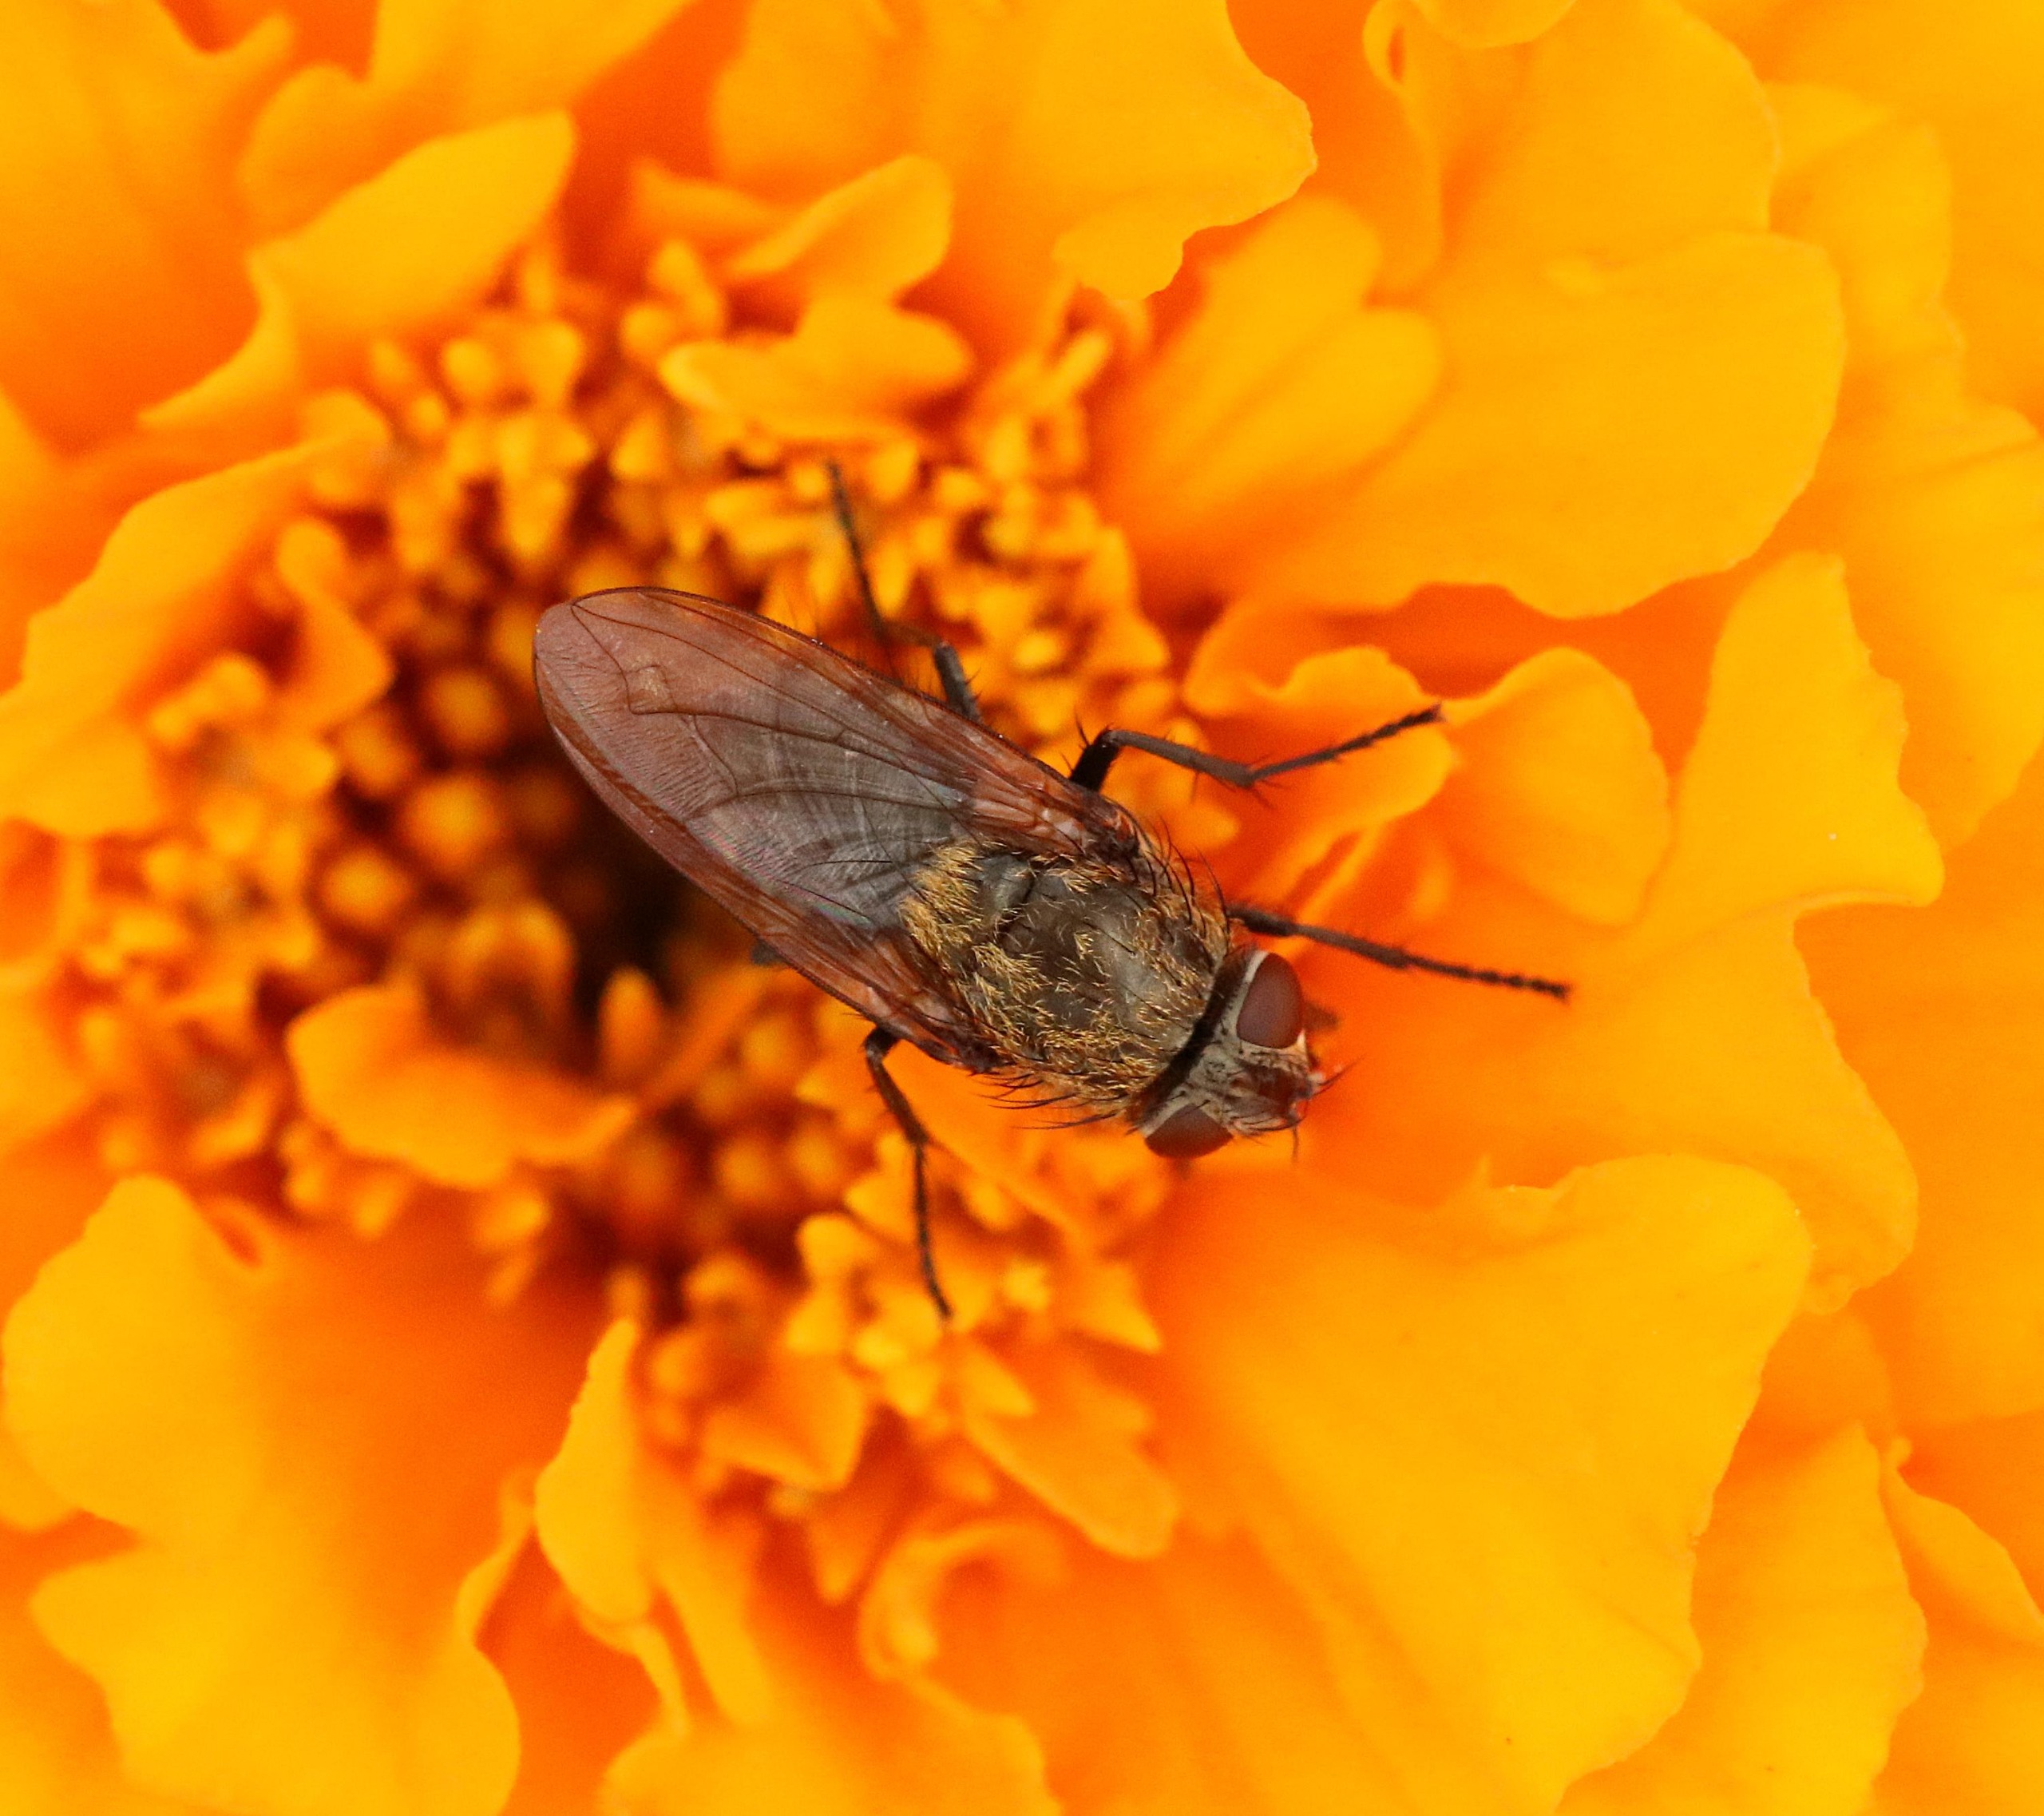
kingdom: Animalia
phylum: Arthropoda
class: Insecta
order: Diptera
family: Polleniidae
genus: Pollenia
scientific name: Pollenia
